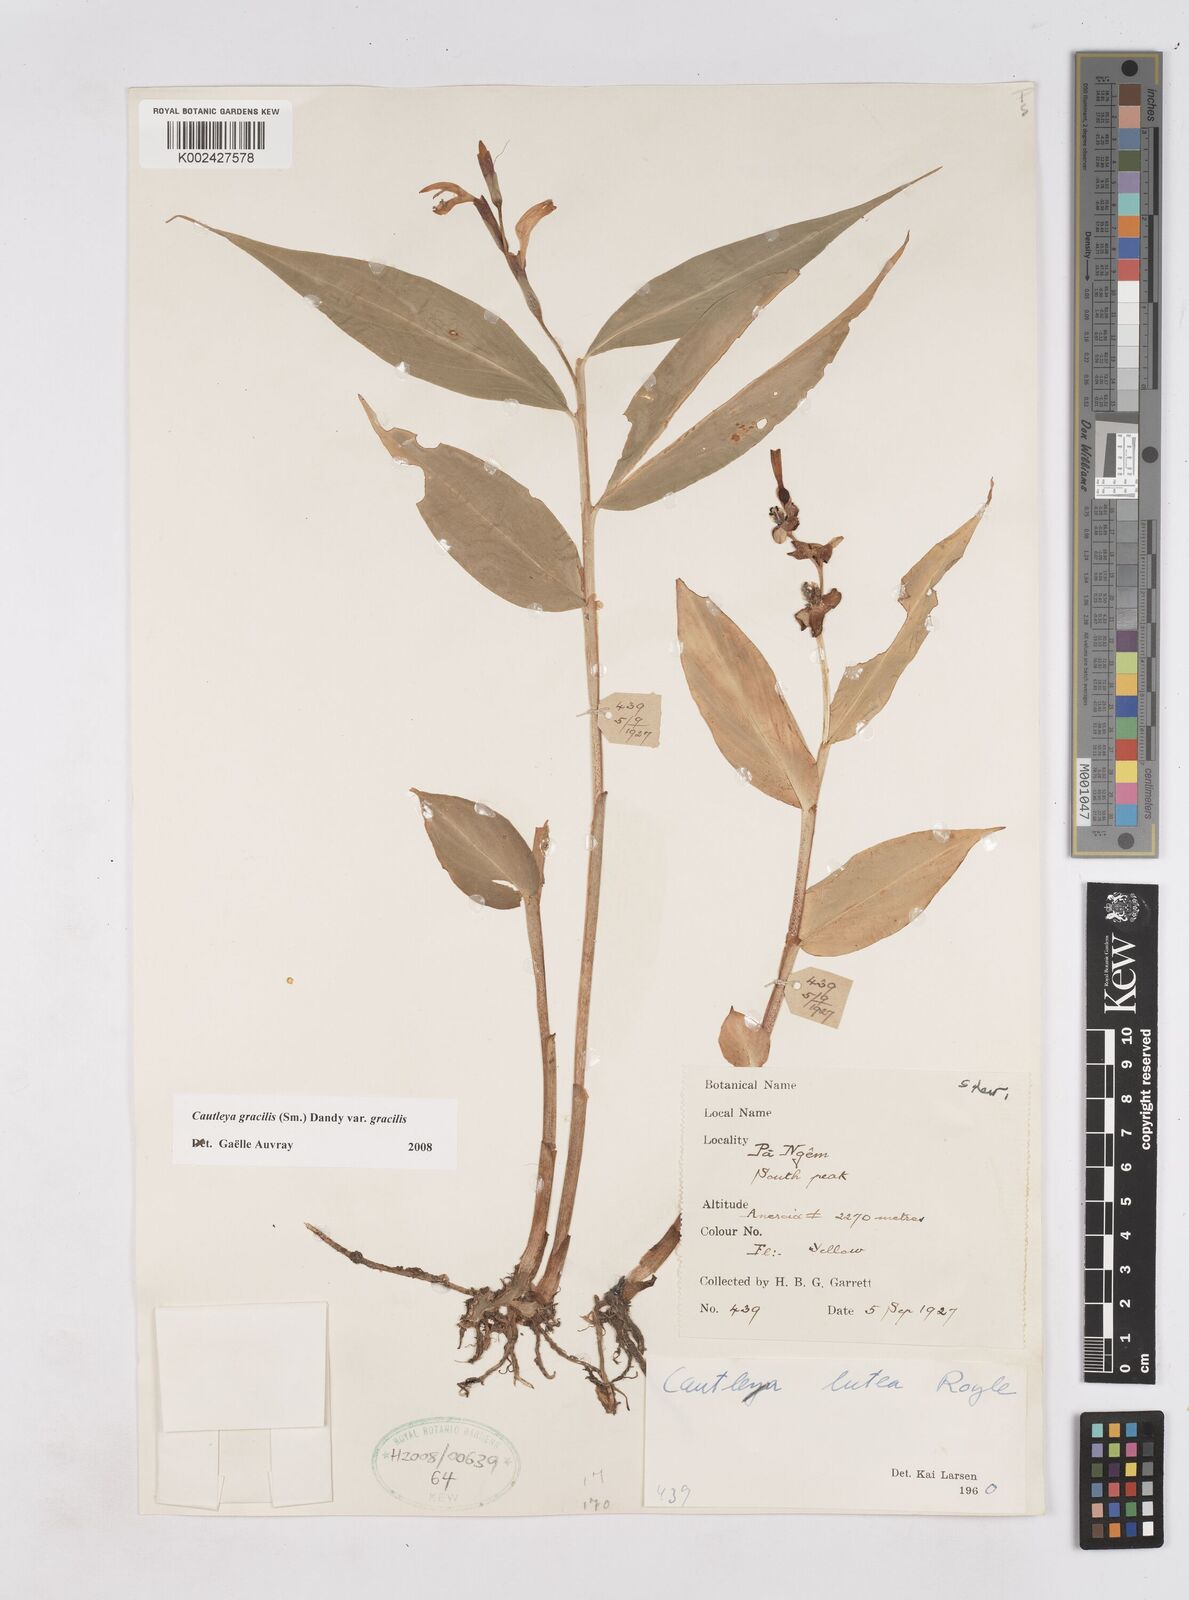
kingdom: Plantae
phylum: Tracheophyta
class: Liliopsida
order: Zingiberales
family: Zingiberaceae
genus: Cautleya
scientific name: Cautleya gracilis
